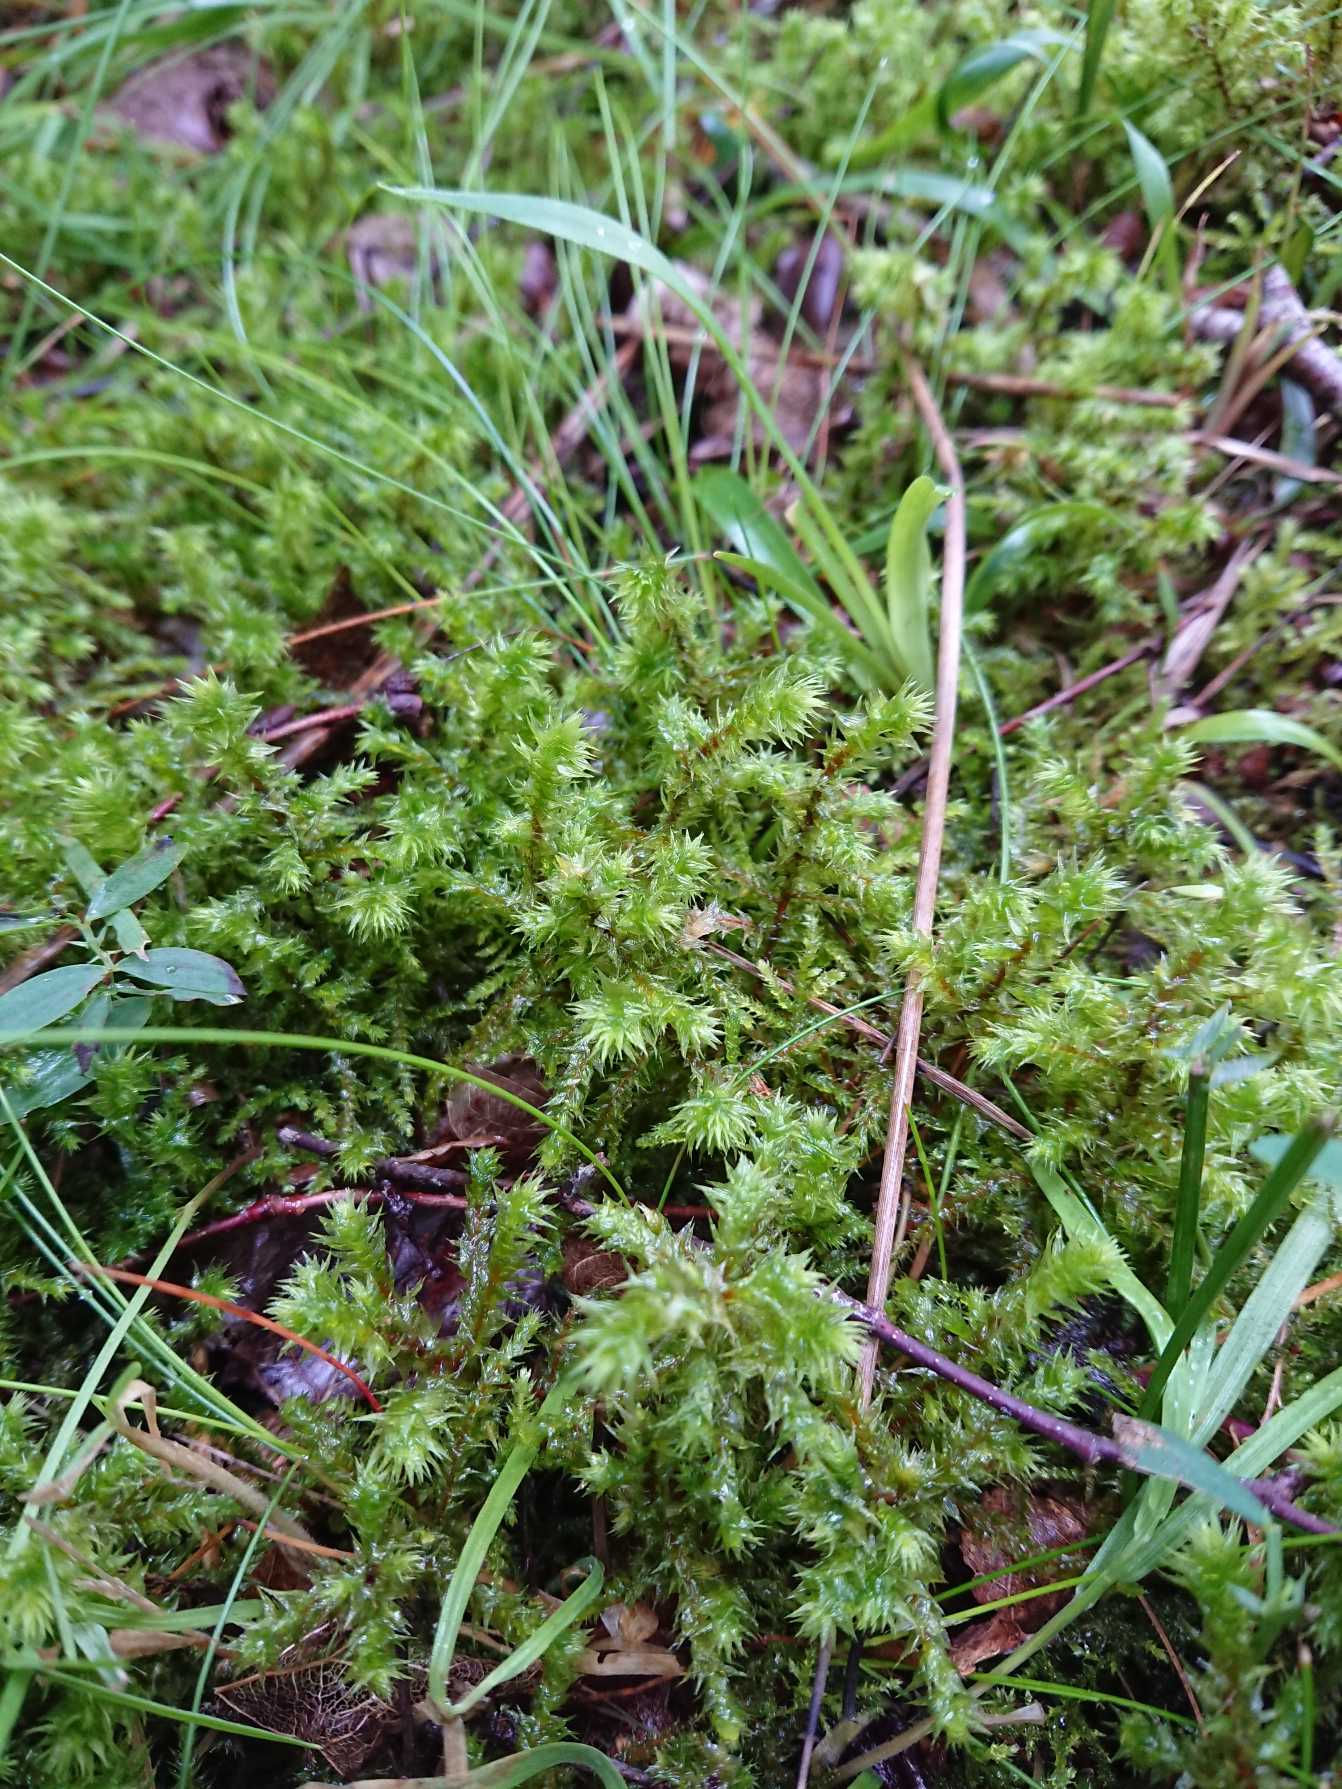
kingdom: Plantae
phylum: Bryophyta
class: Bryopsida
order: Hypnales
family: Hylocomiaceae
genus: Hylocomiadelphus
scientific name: Hylocomiadelphus triquetrus
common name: Stor kransemos
